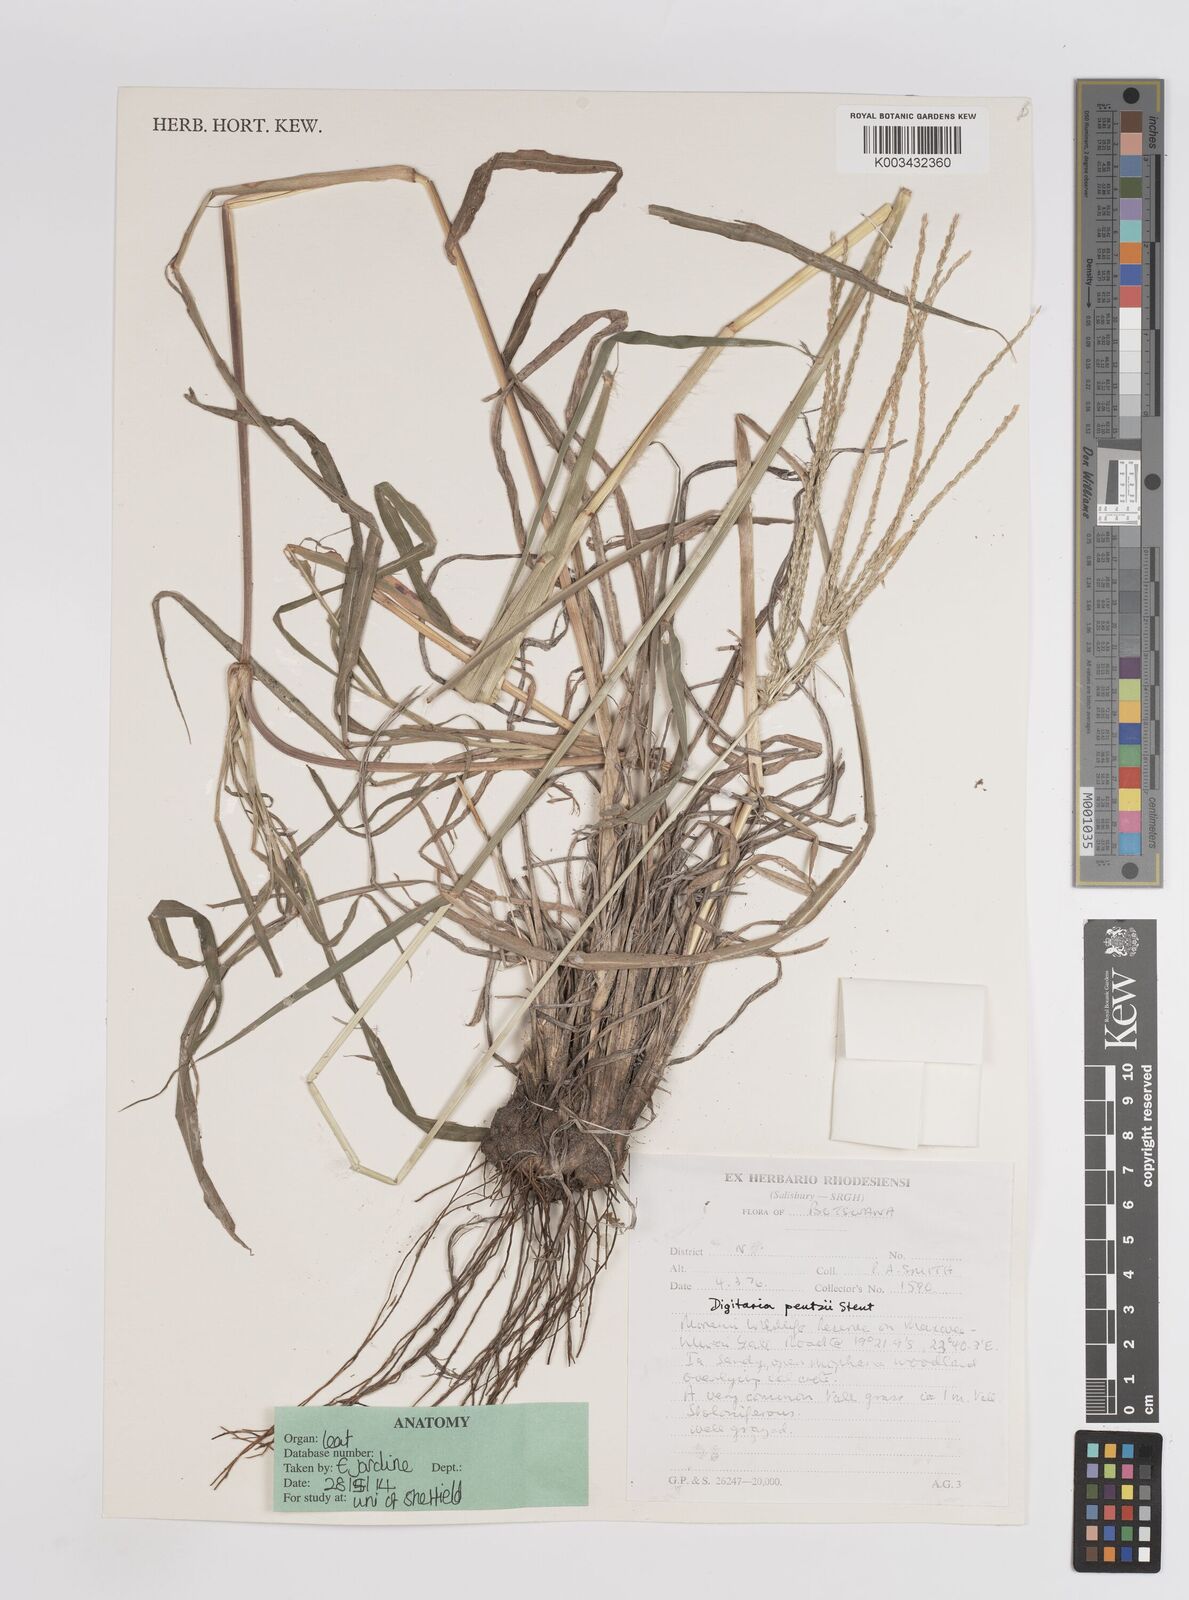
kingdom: Plantae
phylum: Tracheophyta
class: Liliopsida
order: Poales
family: Poaceae
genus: Digitaria
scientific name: Digitaria eriantha
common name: Digitgrass
